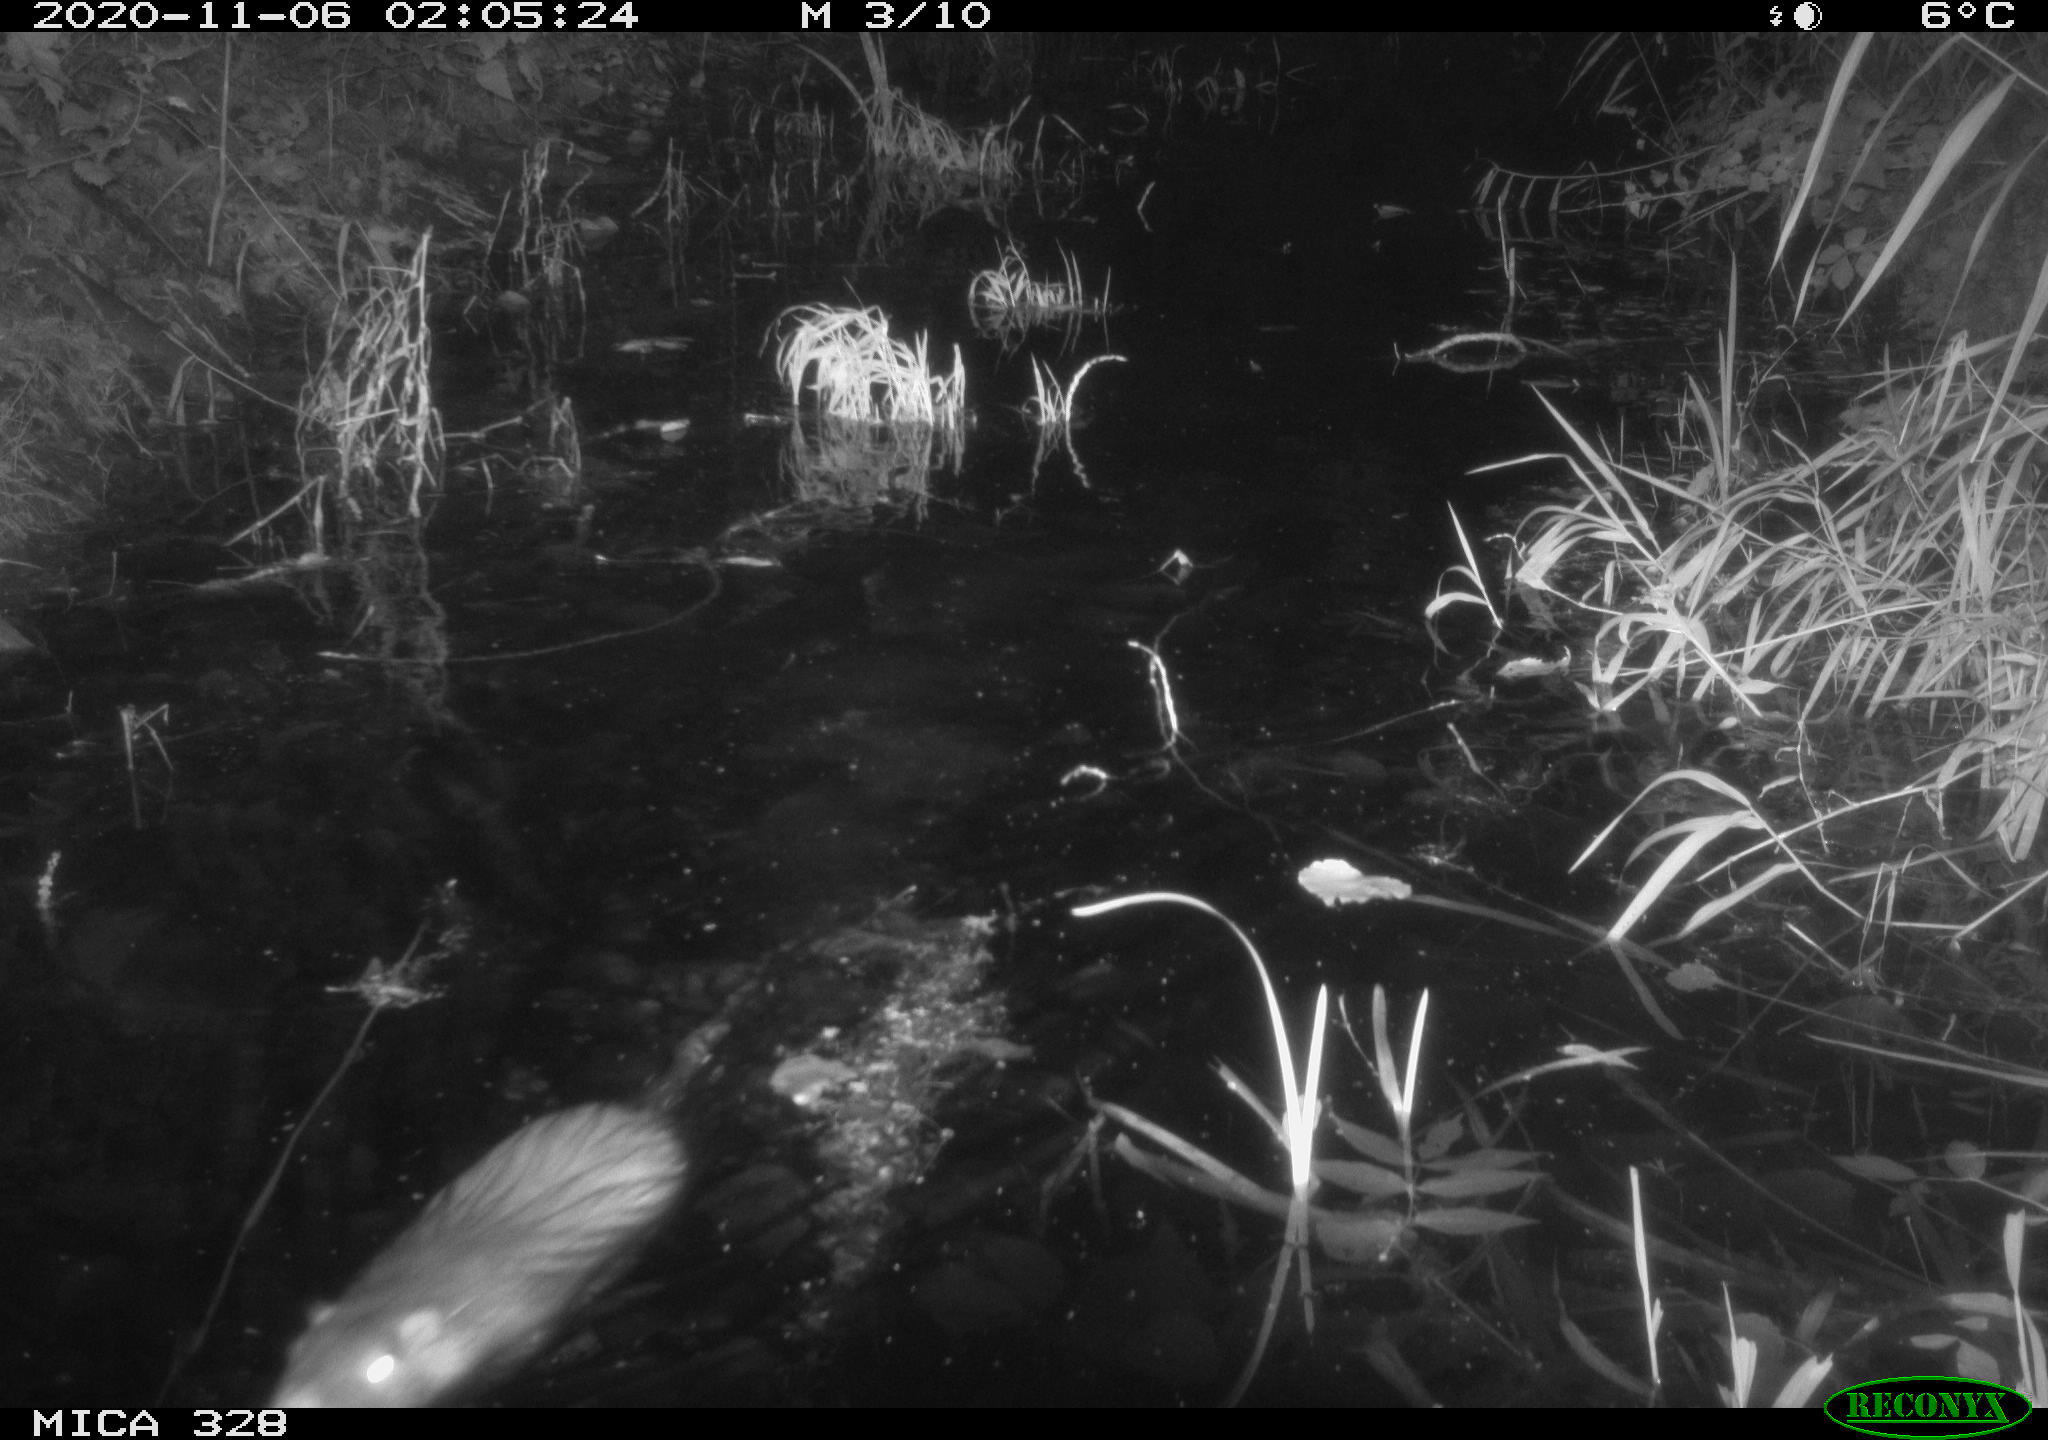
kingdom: Animalia
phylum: Chordata
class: Mammalia
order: Rodentia
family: Myocastoridae
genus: Myocastor
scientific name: Myocastor coypus
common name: Coypu
